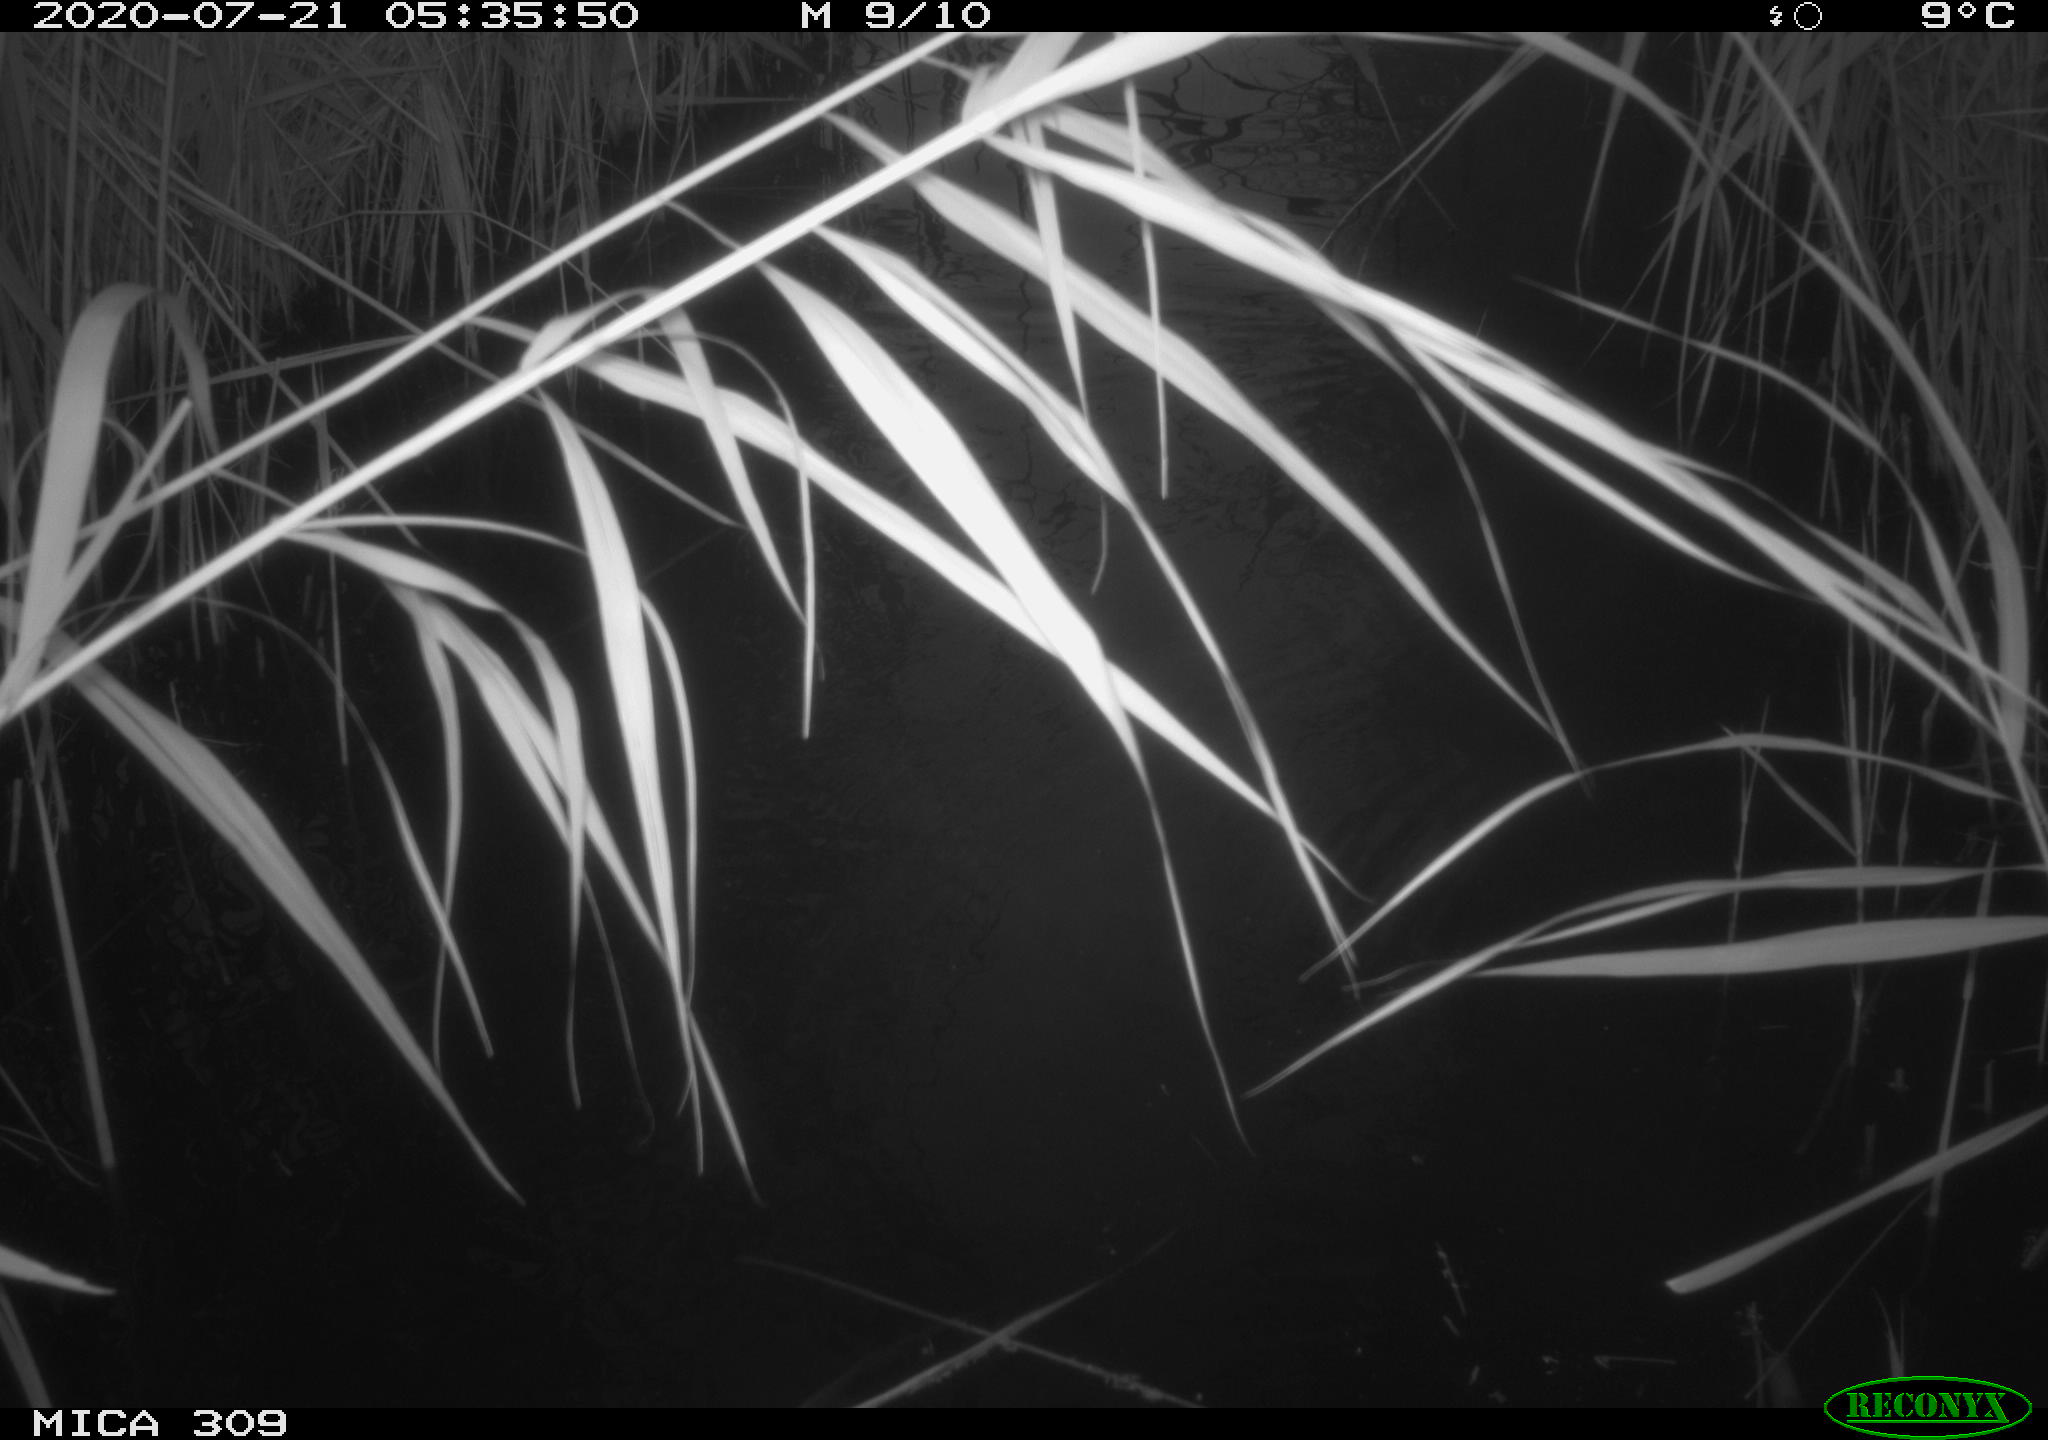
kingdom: Animalia
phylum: Chordata
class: Mammalia
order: Rodentia
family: Muridae
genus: Rattus
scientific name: Rattus norvegicus
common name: Brown rat
